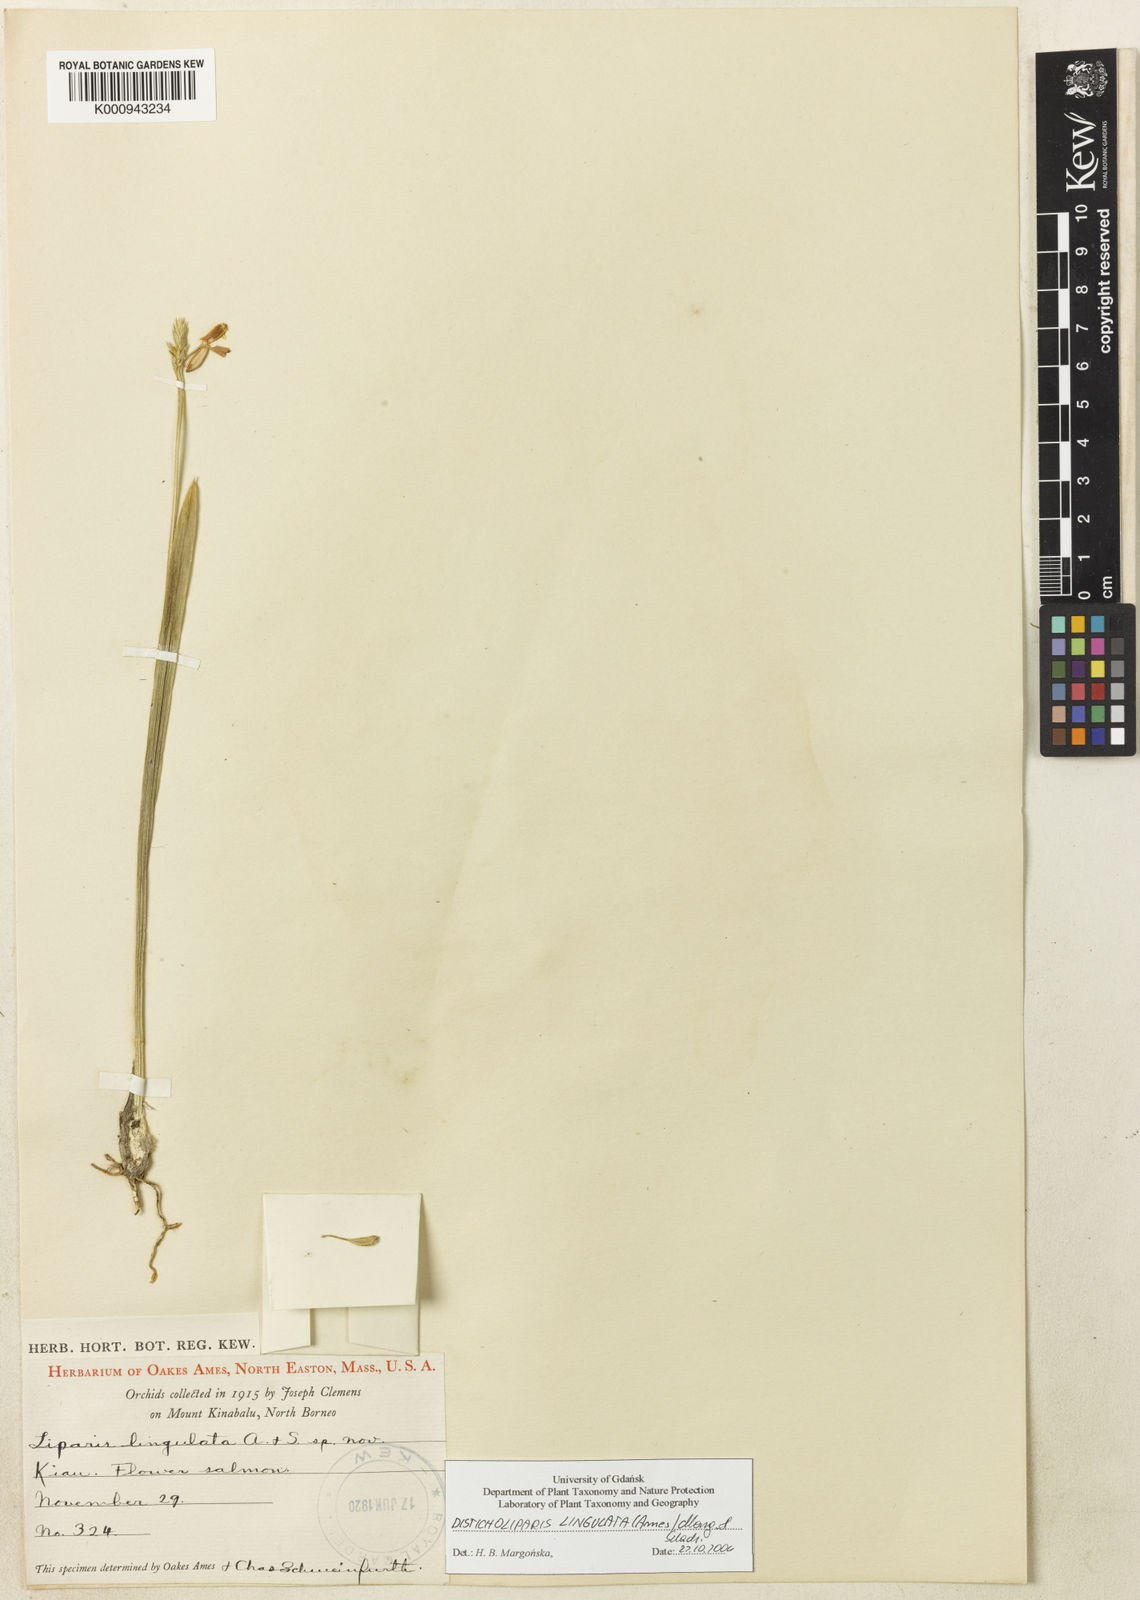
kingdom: Plantae
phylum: Tracheophyta
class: Liliopsida
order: Asparagales
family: Orchidaceae
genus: Stichorkis
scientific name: Stichorkis lingulata
